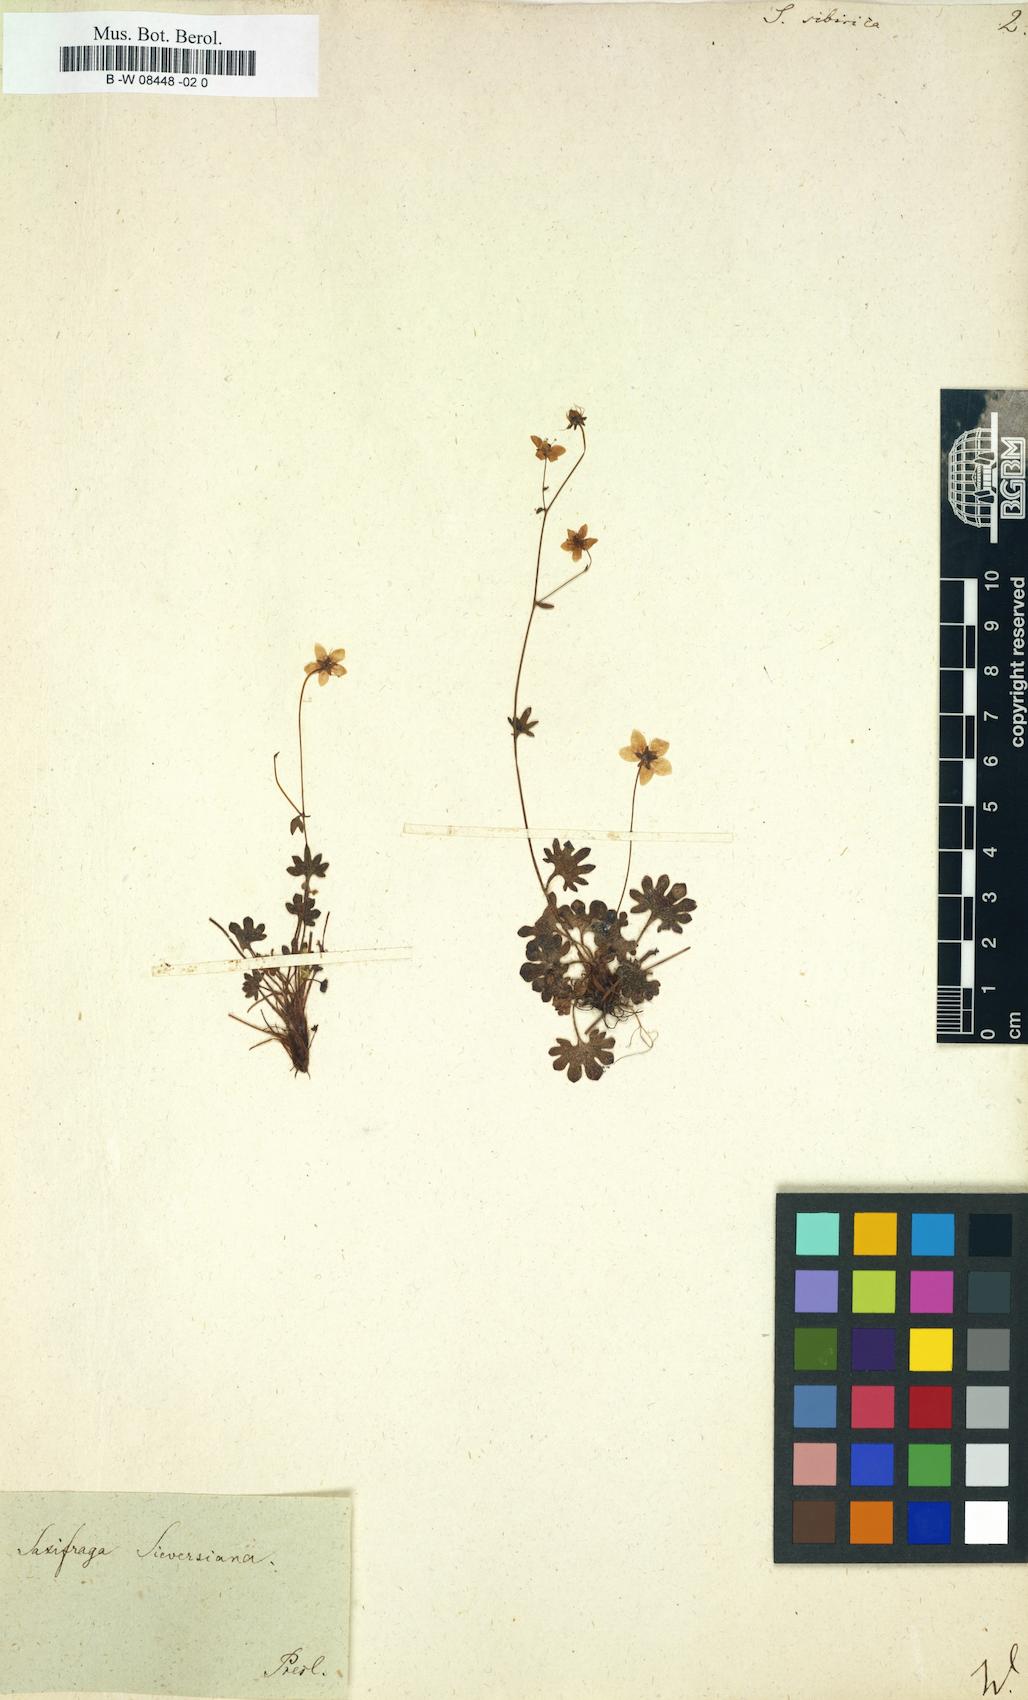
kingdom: Plantae
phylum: Tracheophyta
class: Magnoliopsida
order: Saxifragales
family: Saxifragaceae
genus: Saxifraga
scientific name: Saxifraga sibirica
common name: Siberian saxifrage
